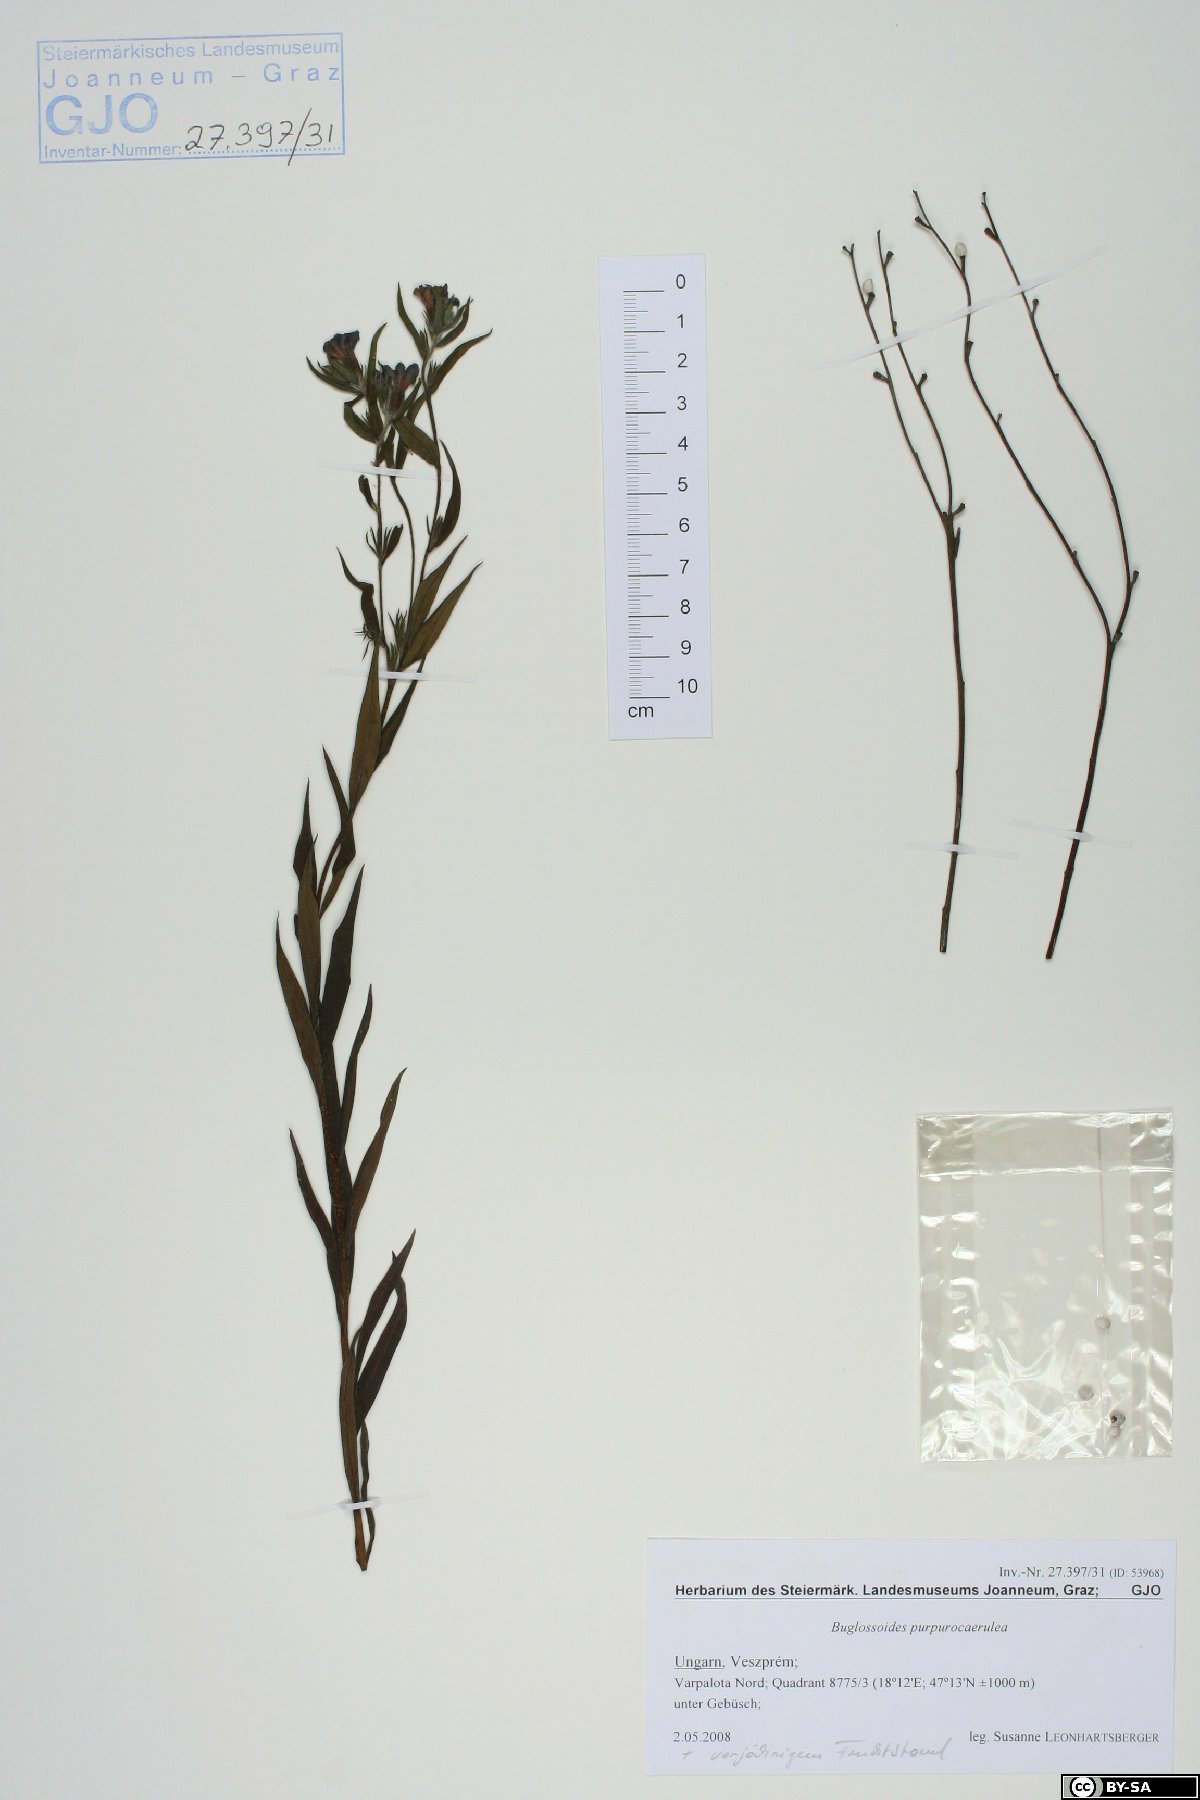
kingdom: Plantae
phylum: Tracheophyta
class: Magnoliopsida
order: Boraginales
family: Boraginaceae
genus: Aegonychon
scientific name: Aegonychon purpurocaeruleum
